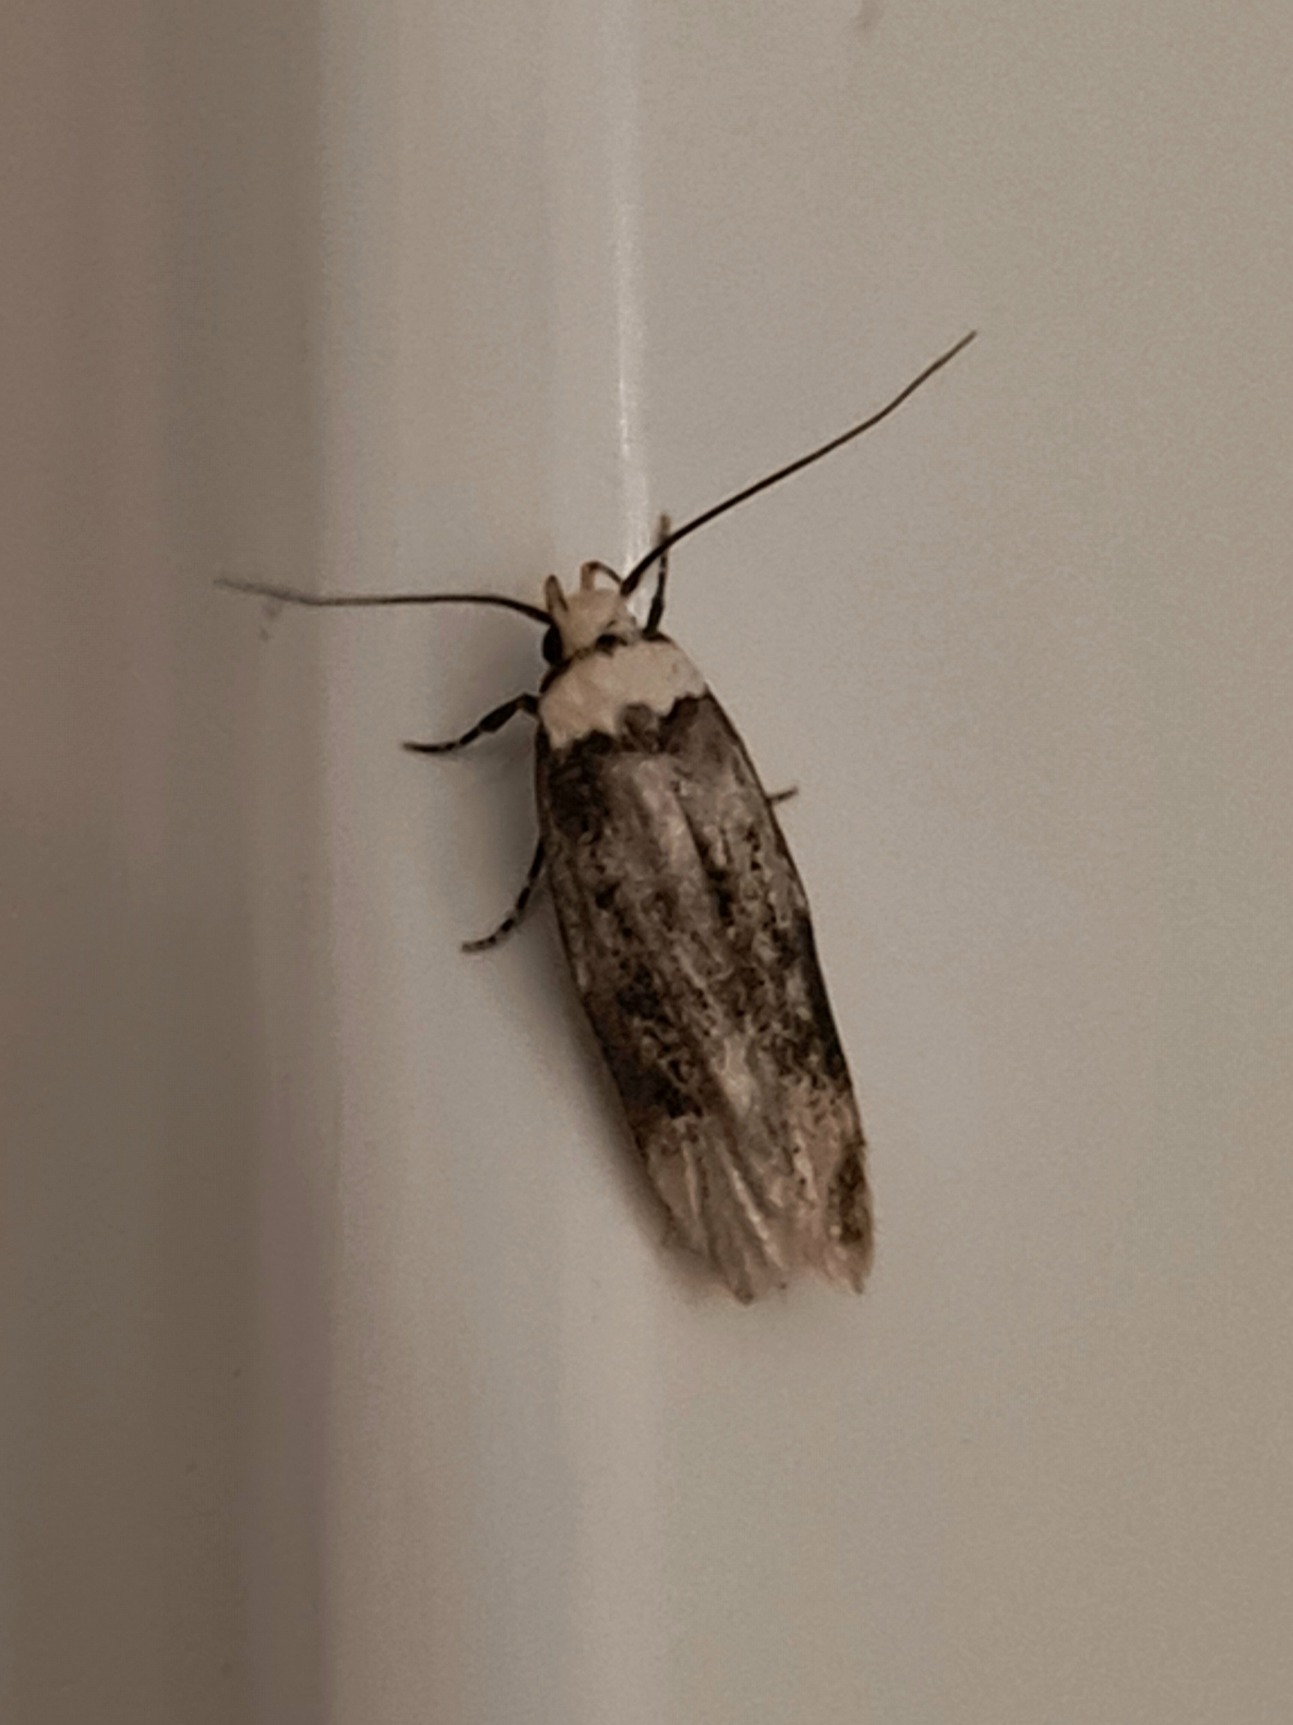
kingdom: Animalia
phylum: Arthropoda
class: Insecta
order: Lepidoptera
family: Oecophoridae
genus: Endrosis
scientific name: Endrosis sarcitrella
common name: Klistermøl
